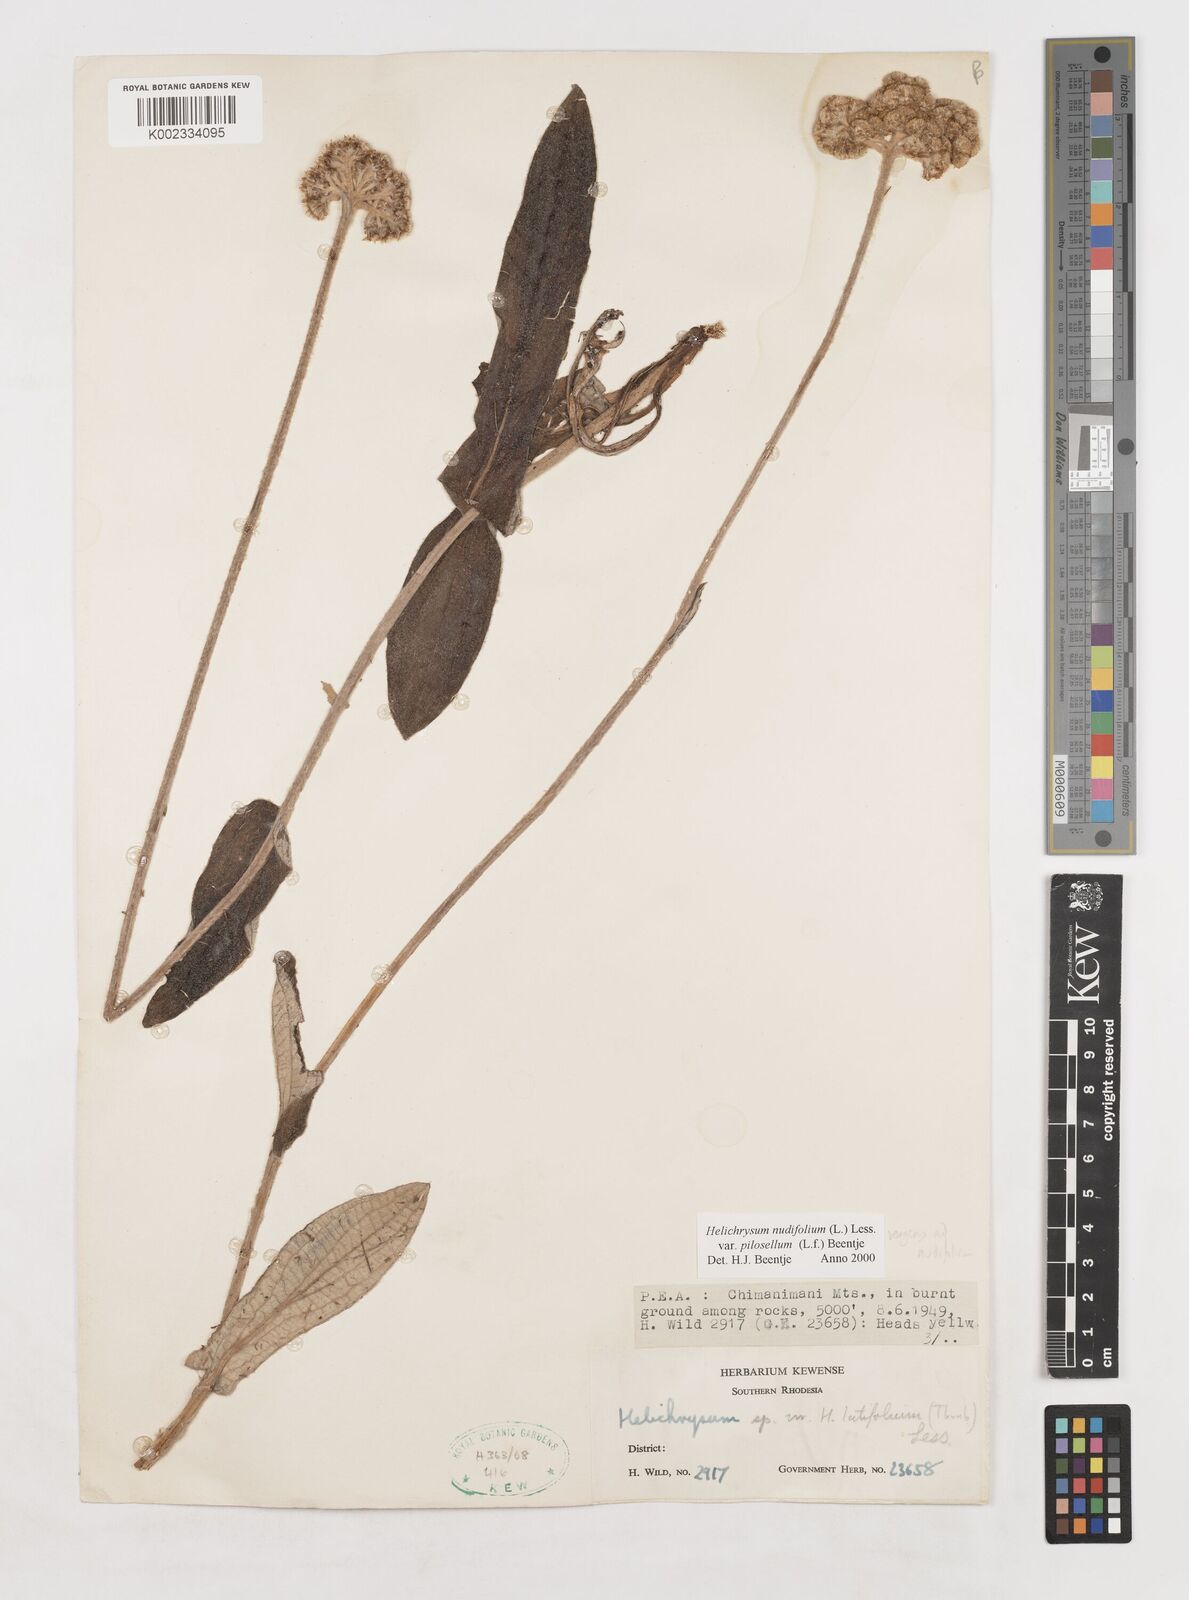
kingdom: Plantae
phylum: Tracheophyta
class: Magnoliopsida
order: Asterales
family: Asteraceae
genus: Helichrysum
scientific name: Helichrysum nudifolium
